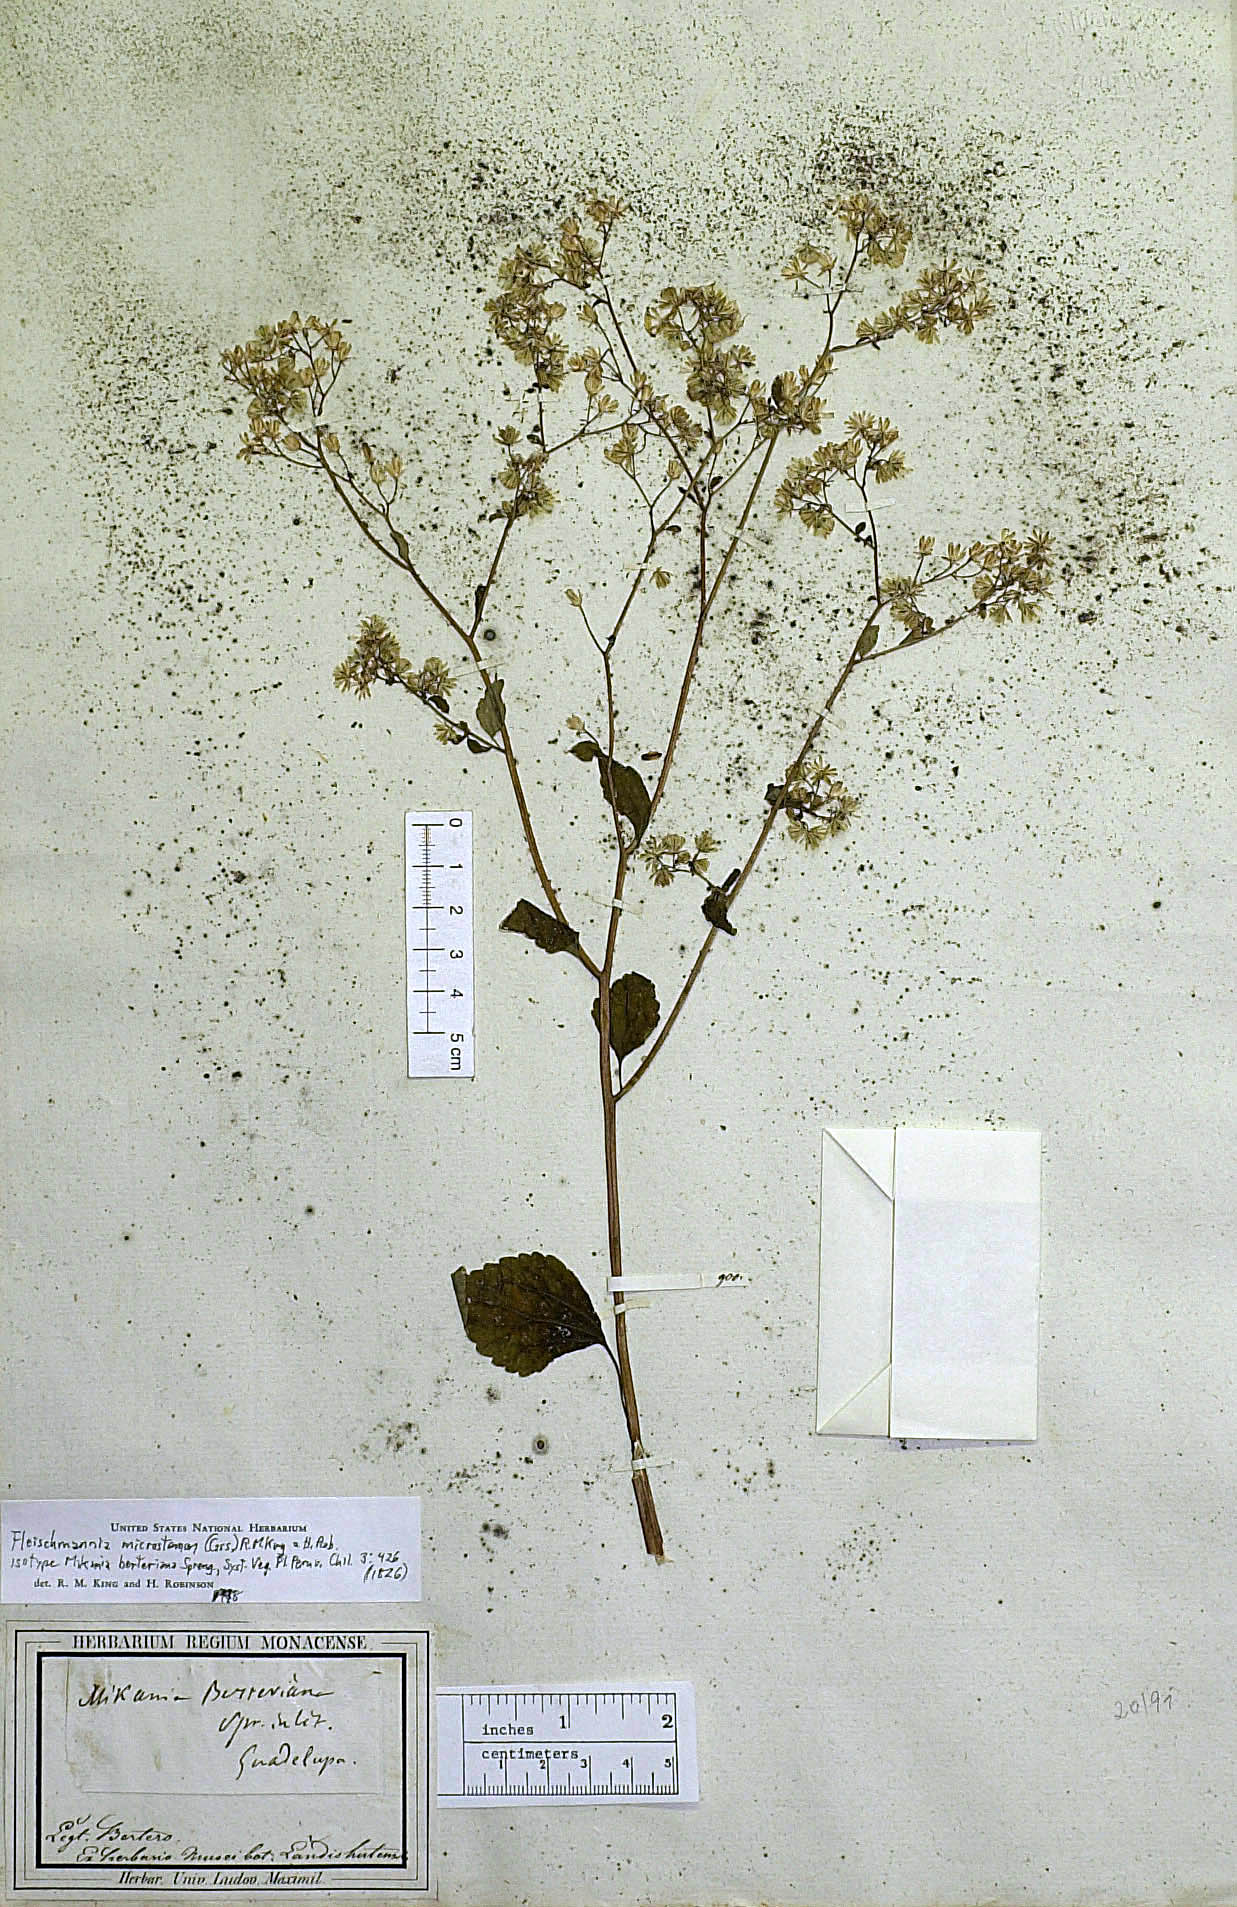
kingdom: Plantae
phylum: Tracheophyta
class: Magnoliopsida
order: Asterales
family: Asteraceae
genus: Fleischmannia
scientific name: Fleischmannia microstemon
